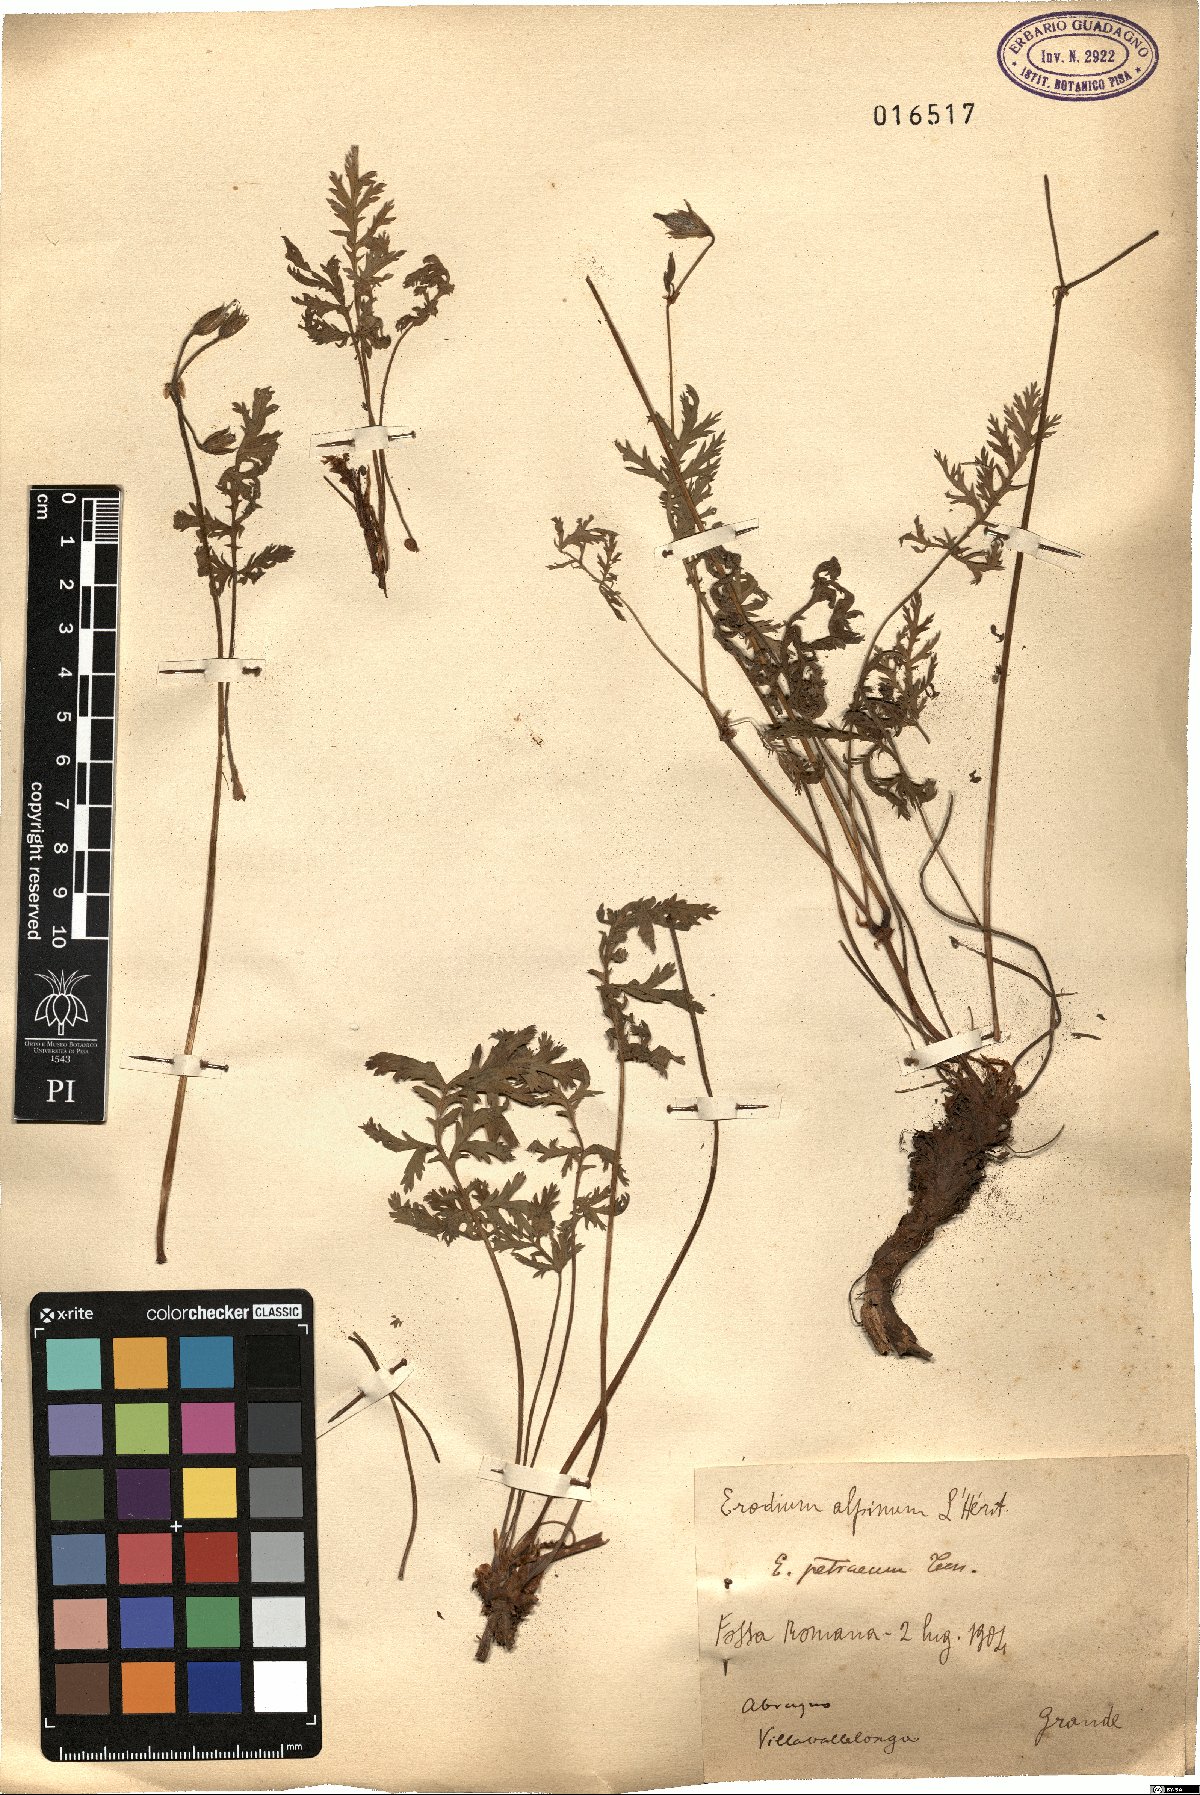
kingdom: Plantae
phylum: Tracheophyta
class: Magnoliopsida
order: Geraniales
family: Geraniaceae
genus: Erodium
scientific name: Erodium alpinum
